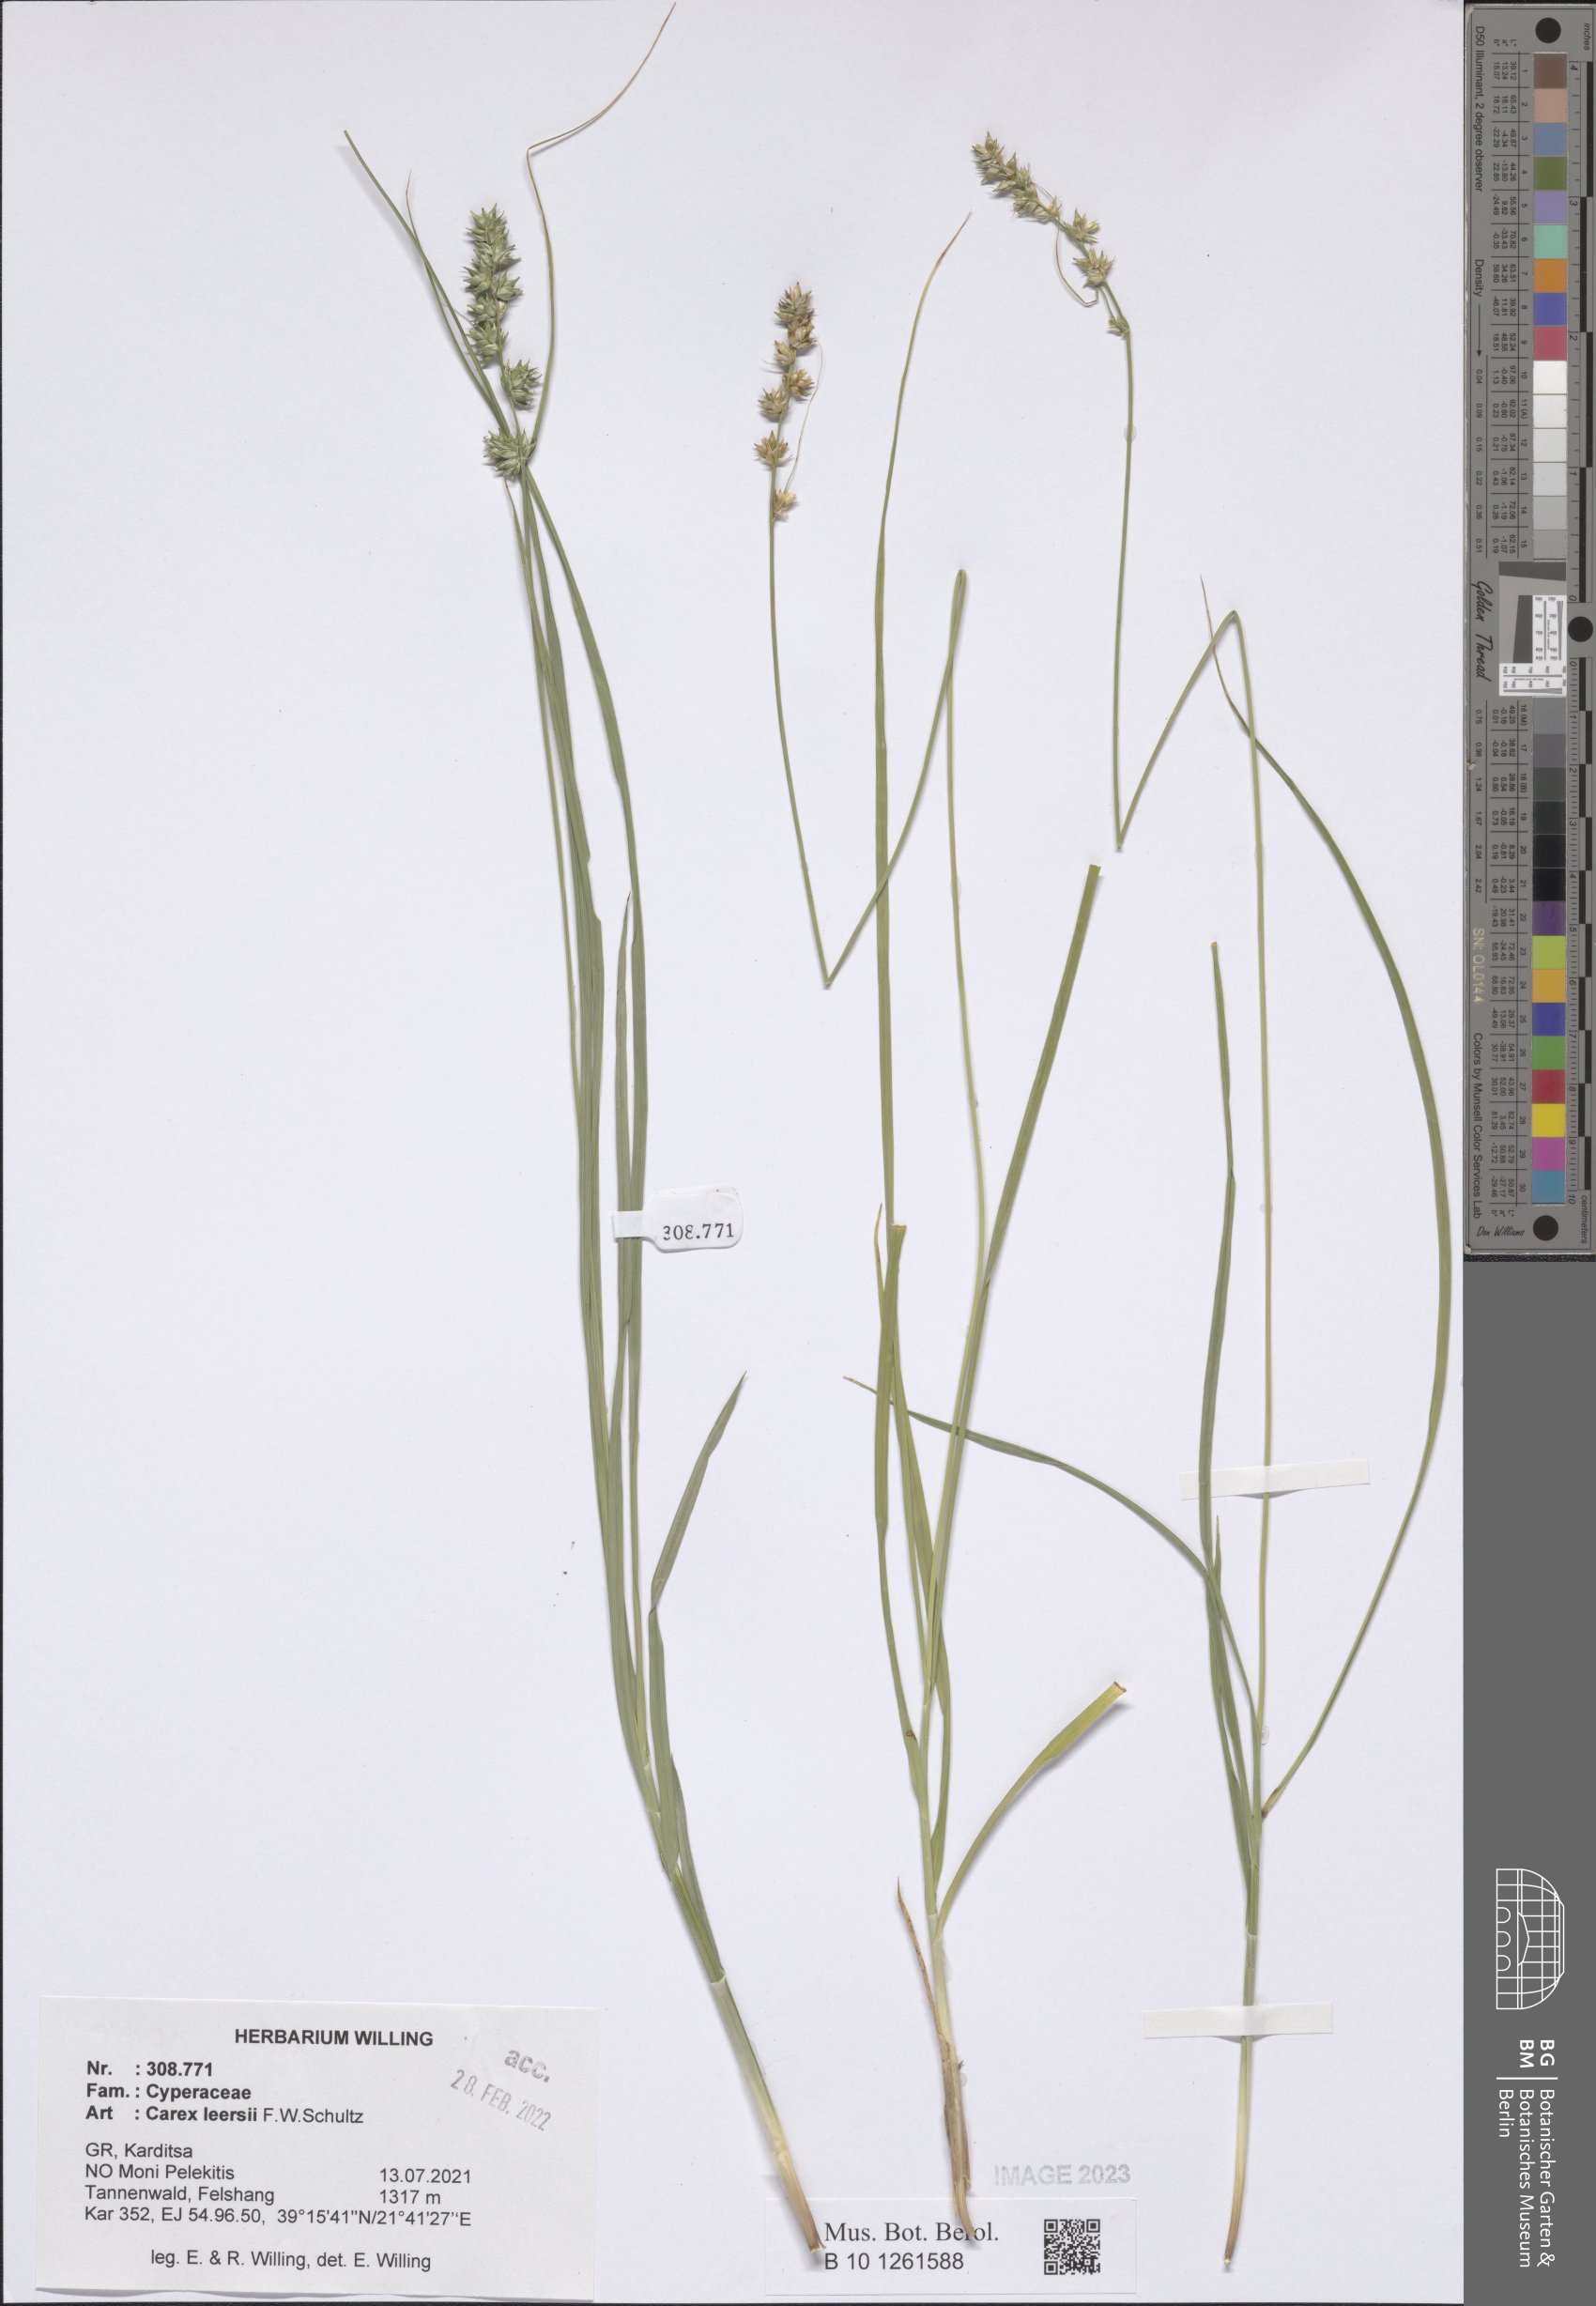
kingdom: Plantae
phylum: Tracheophyta
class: Liliopsida
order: Poales
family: Cyperaceae
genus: Carex
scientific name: Carex leersii
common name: Leers' sedge
